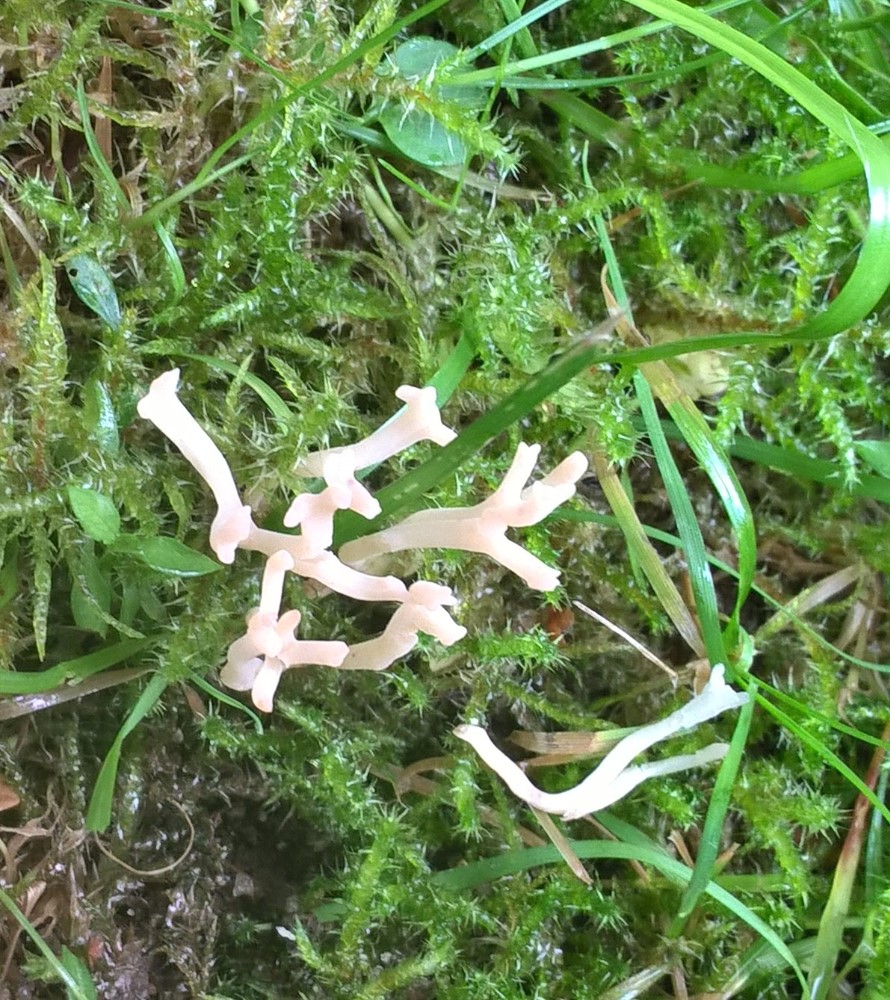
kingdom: Fungi
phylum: Basidiomycota
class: Agaricomycetes
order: Agaricales
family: Clavariaceae
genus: Ramariopsis
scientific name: Ramariopsis
